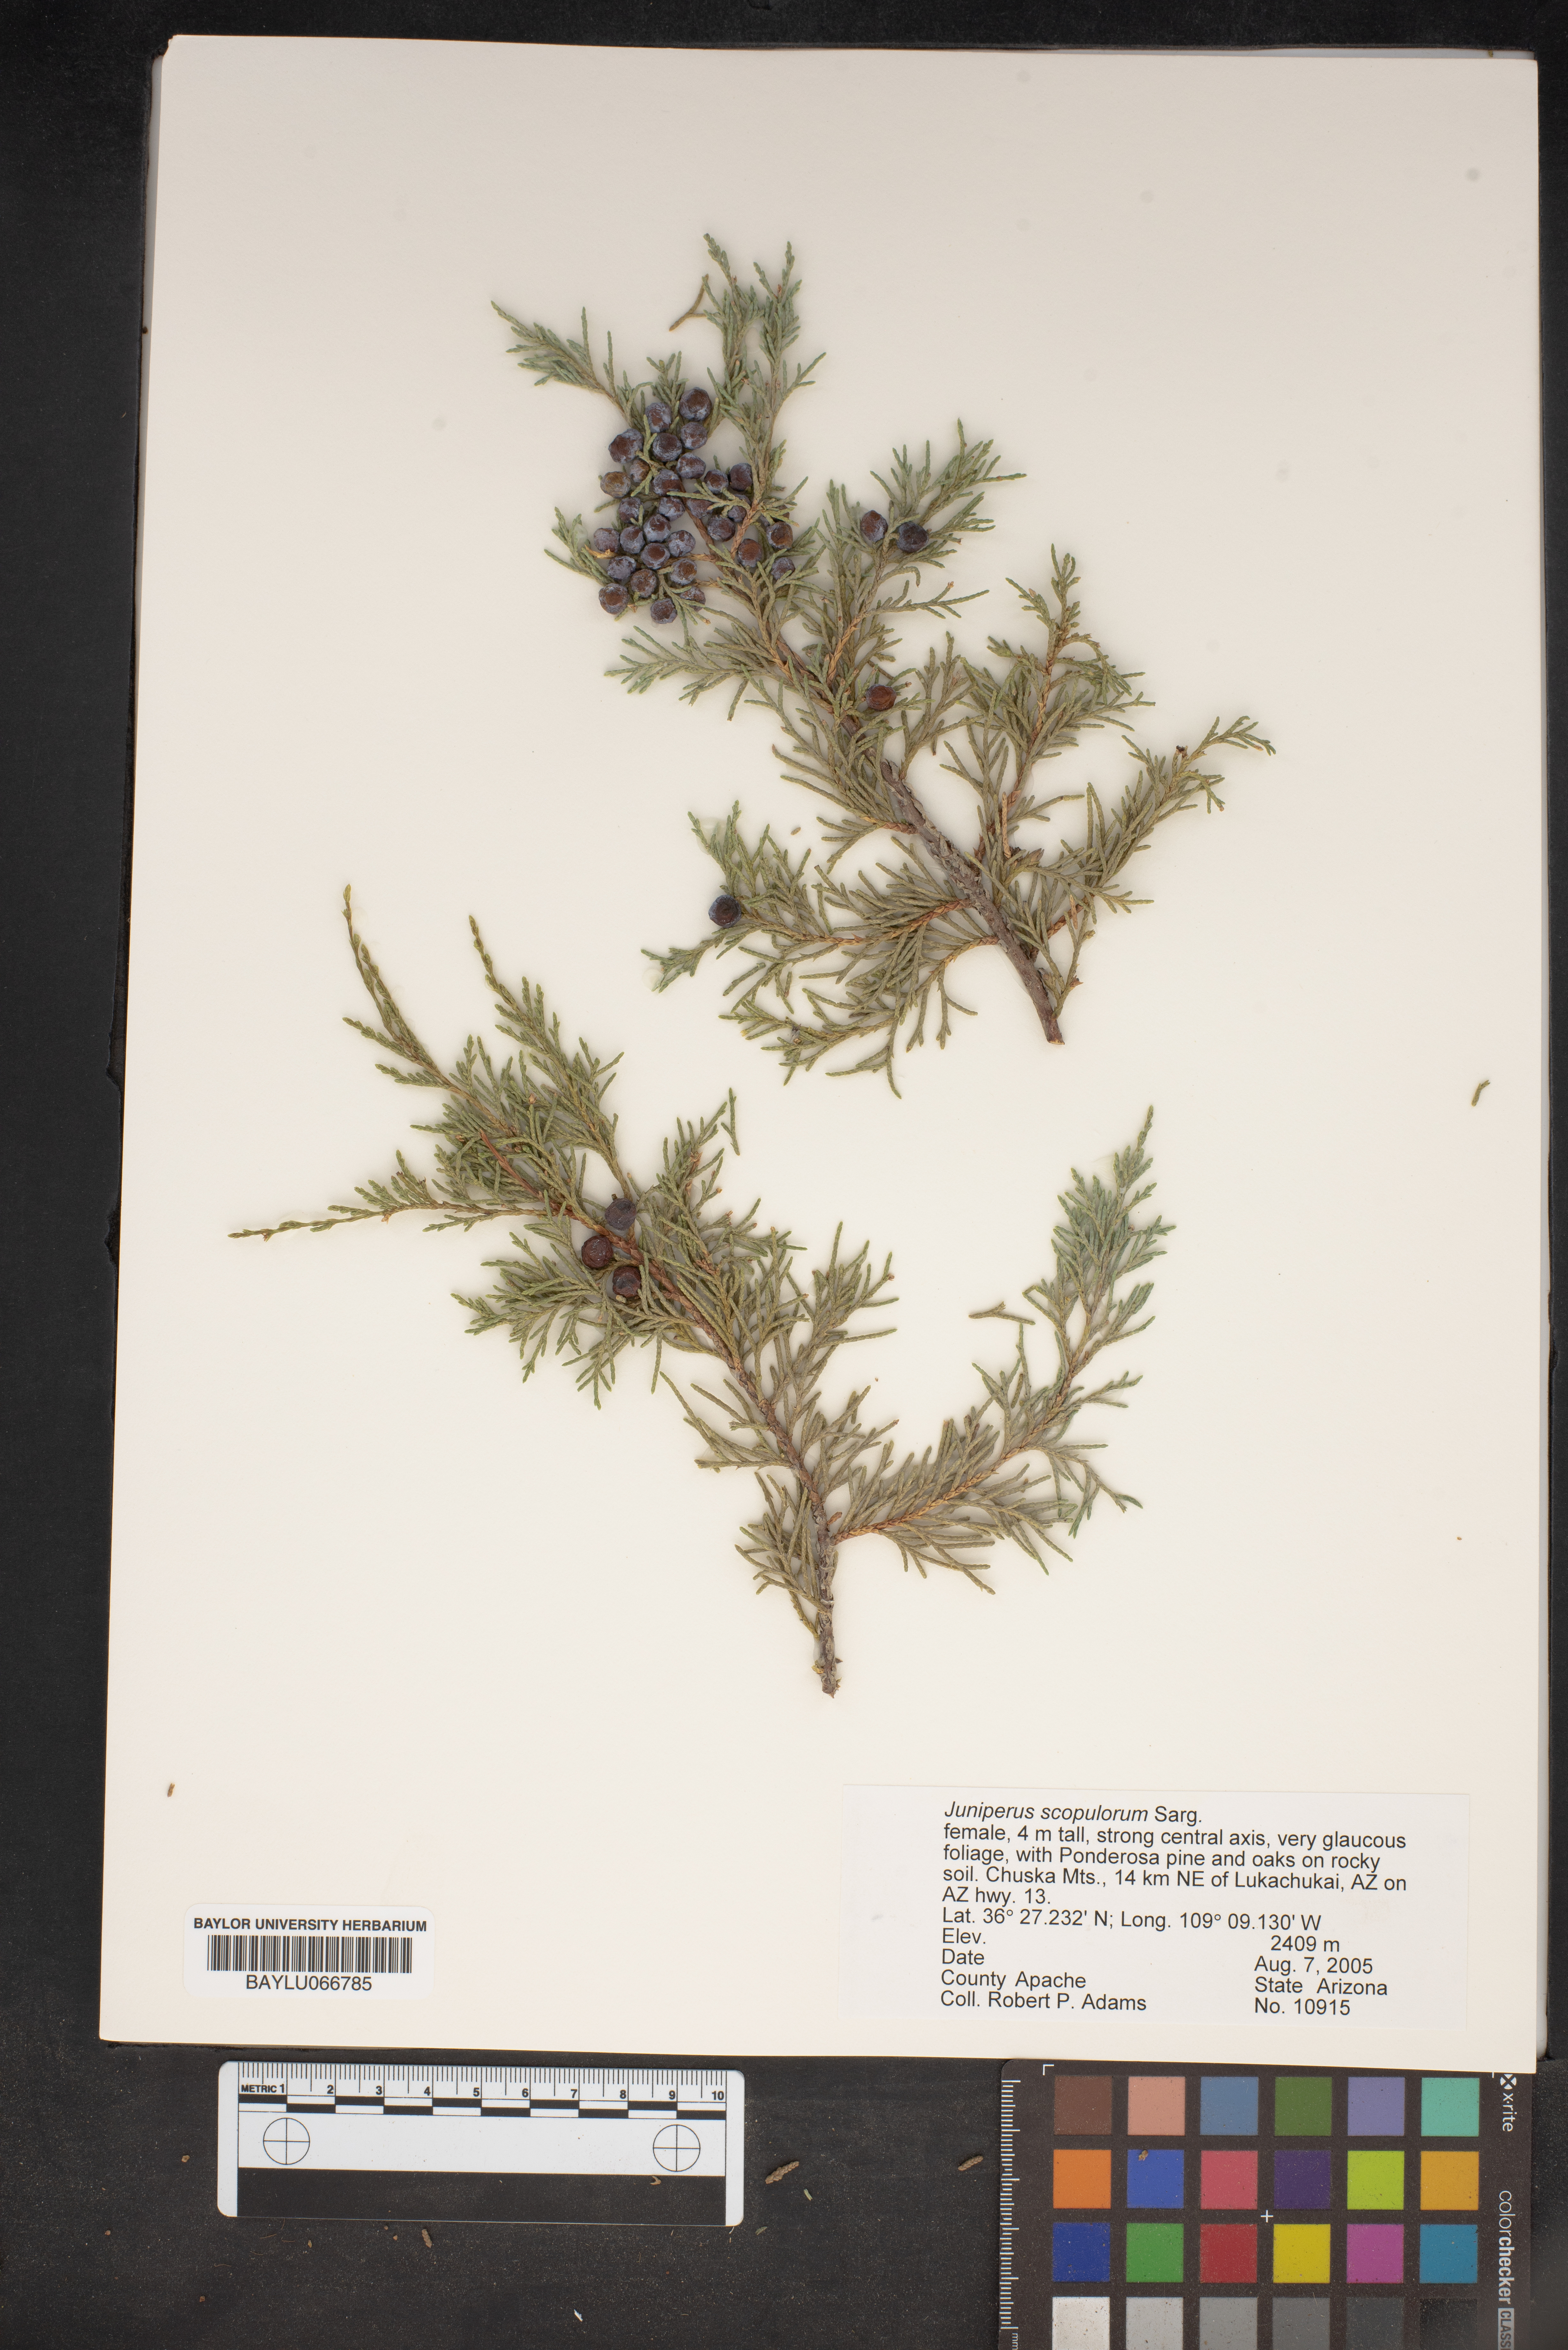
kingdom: Plantae
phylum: Tracheophyta
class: Pinopsida
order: Pinales
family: Cupressaceae
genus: Juniperus
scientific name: Juniperus scopulorum
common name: Rocky mountain juniper
